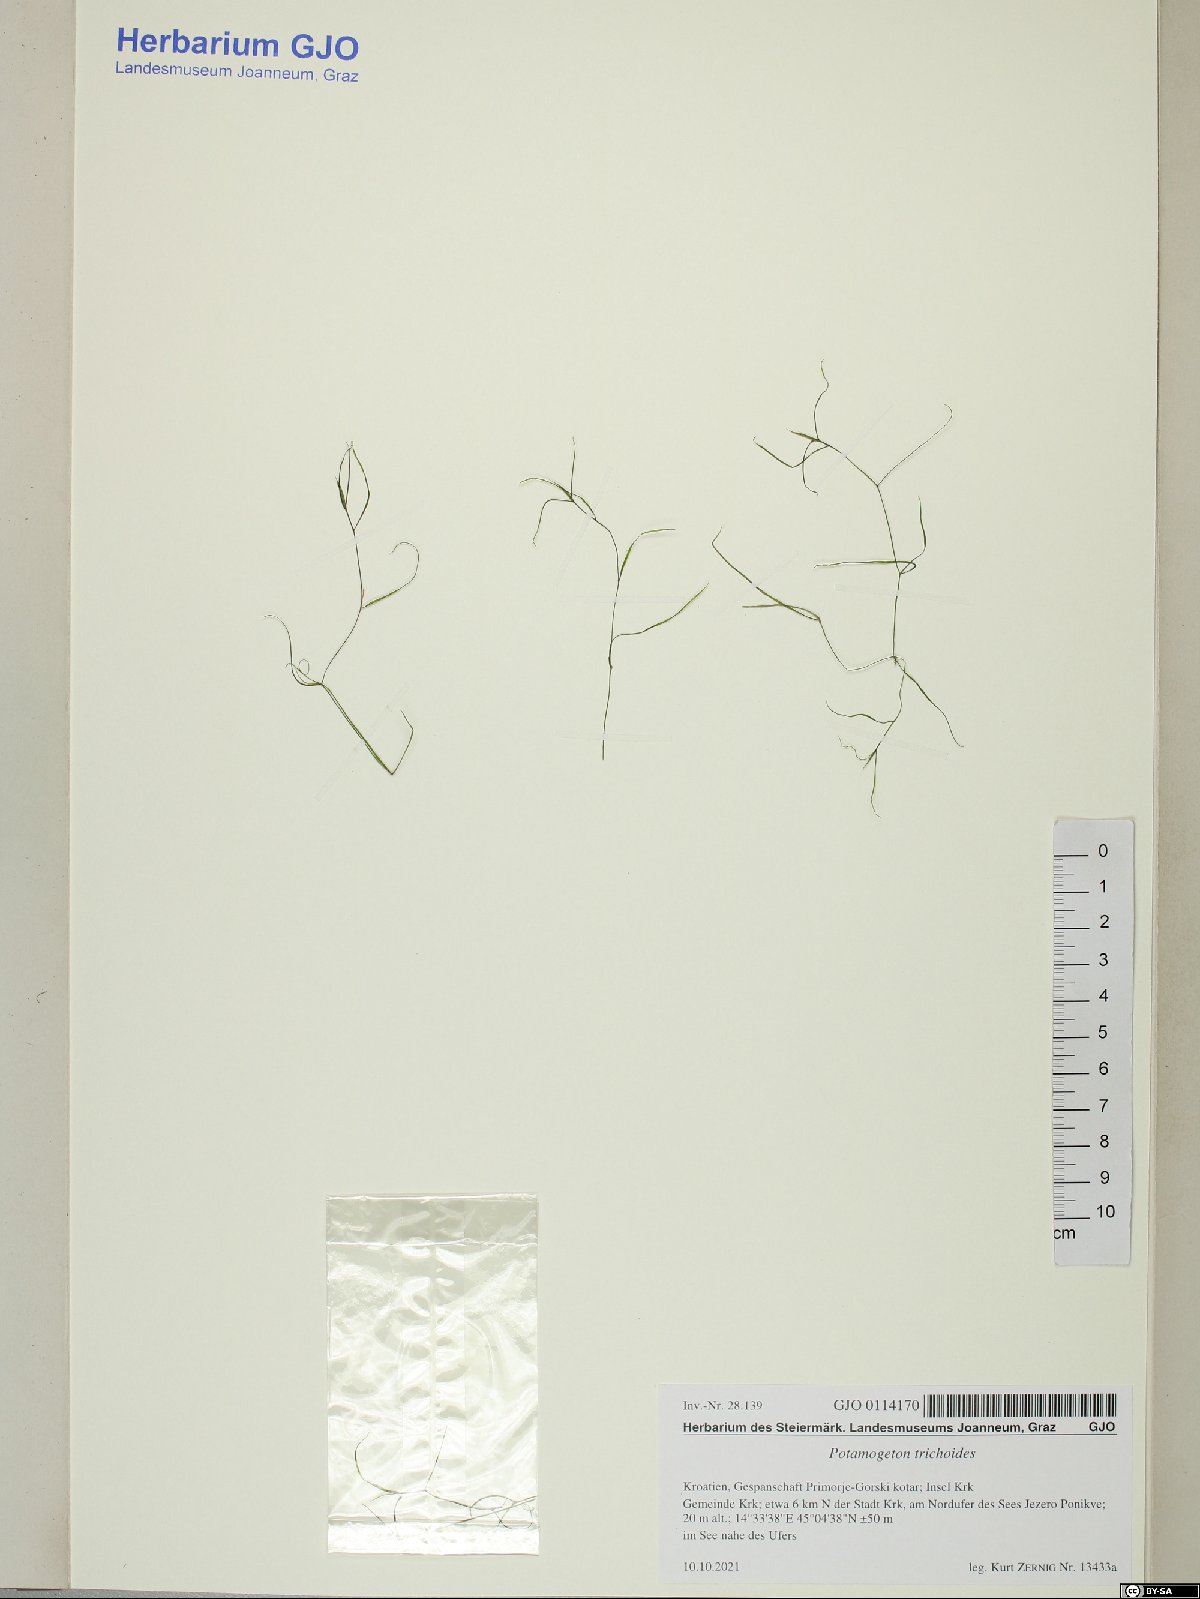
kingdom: Plantae
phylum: Tracheophyta
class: Liliopsida
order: Alismatales
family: Potamogetonaceae
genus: Potamogeton
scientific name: Potamogeton trichoides
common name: Hairlike pondweed
